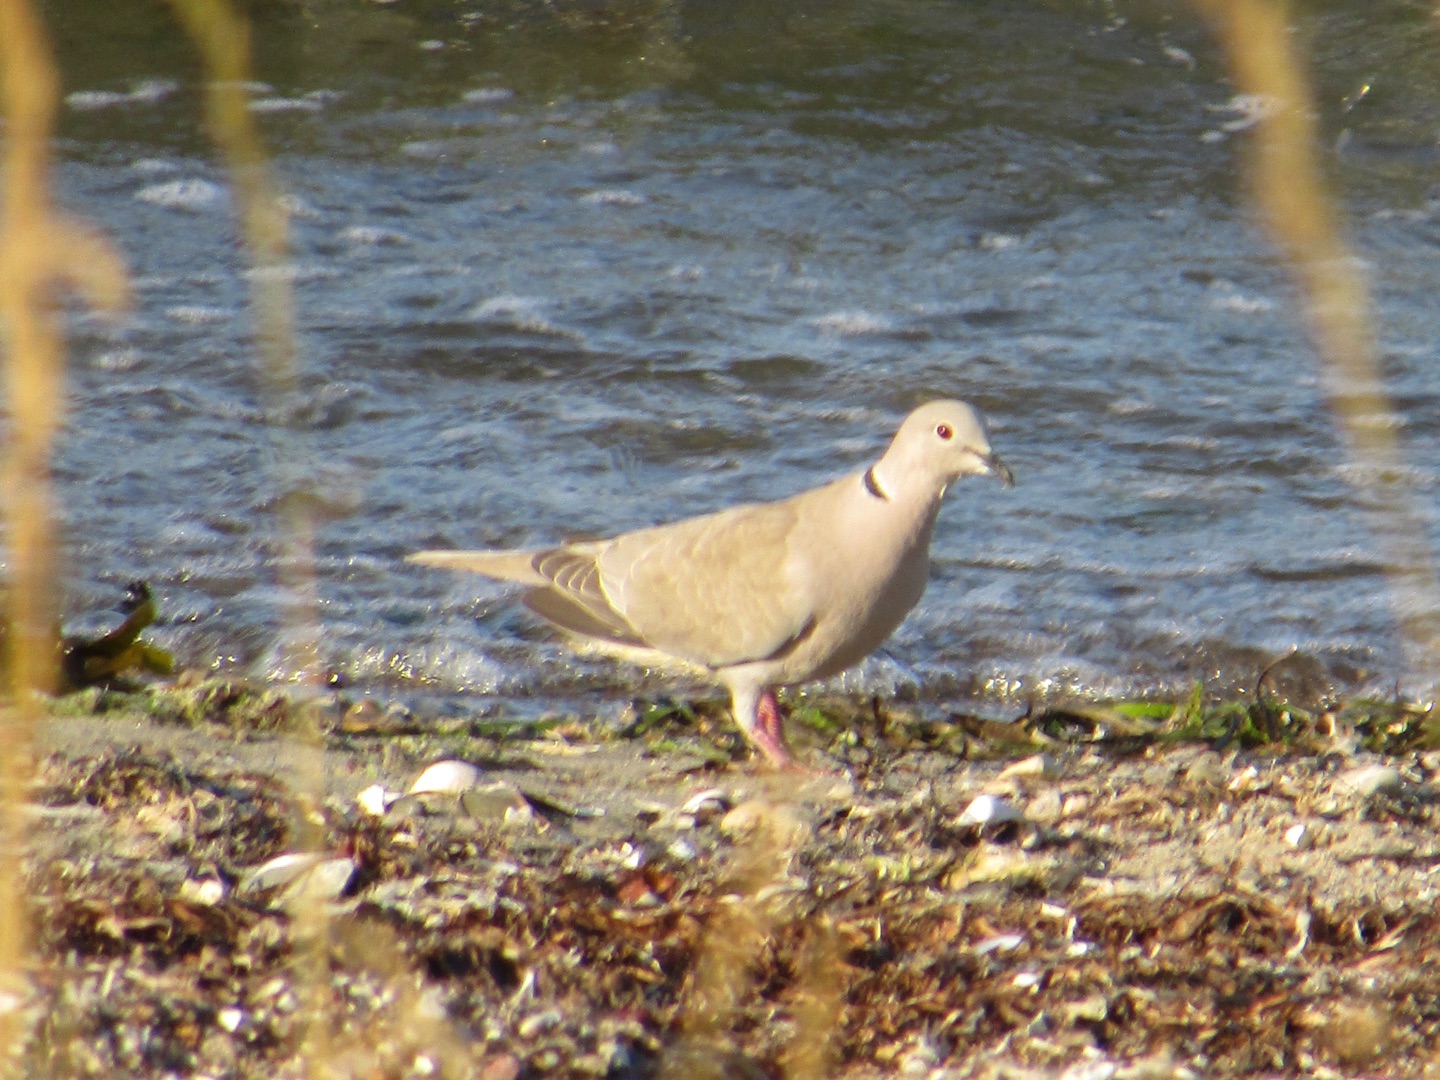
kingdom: Animalia
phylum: Chordata
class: Aves
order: Columbiformes
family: Columbidae
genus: Streptopelia
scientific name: Streptopelia decaocto
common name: Tyrkerdue
